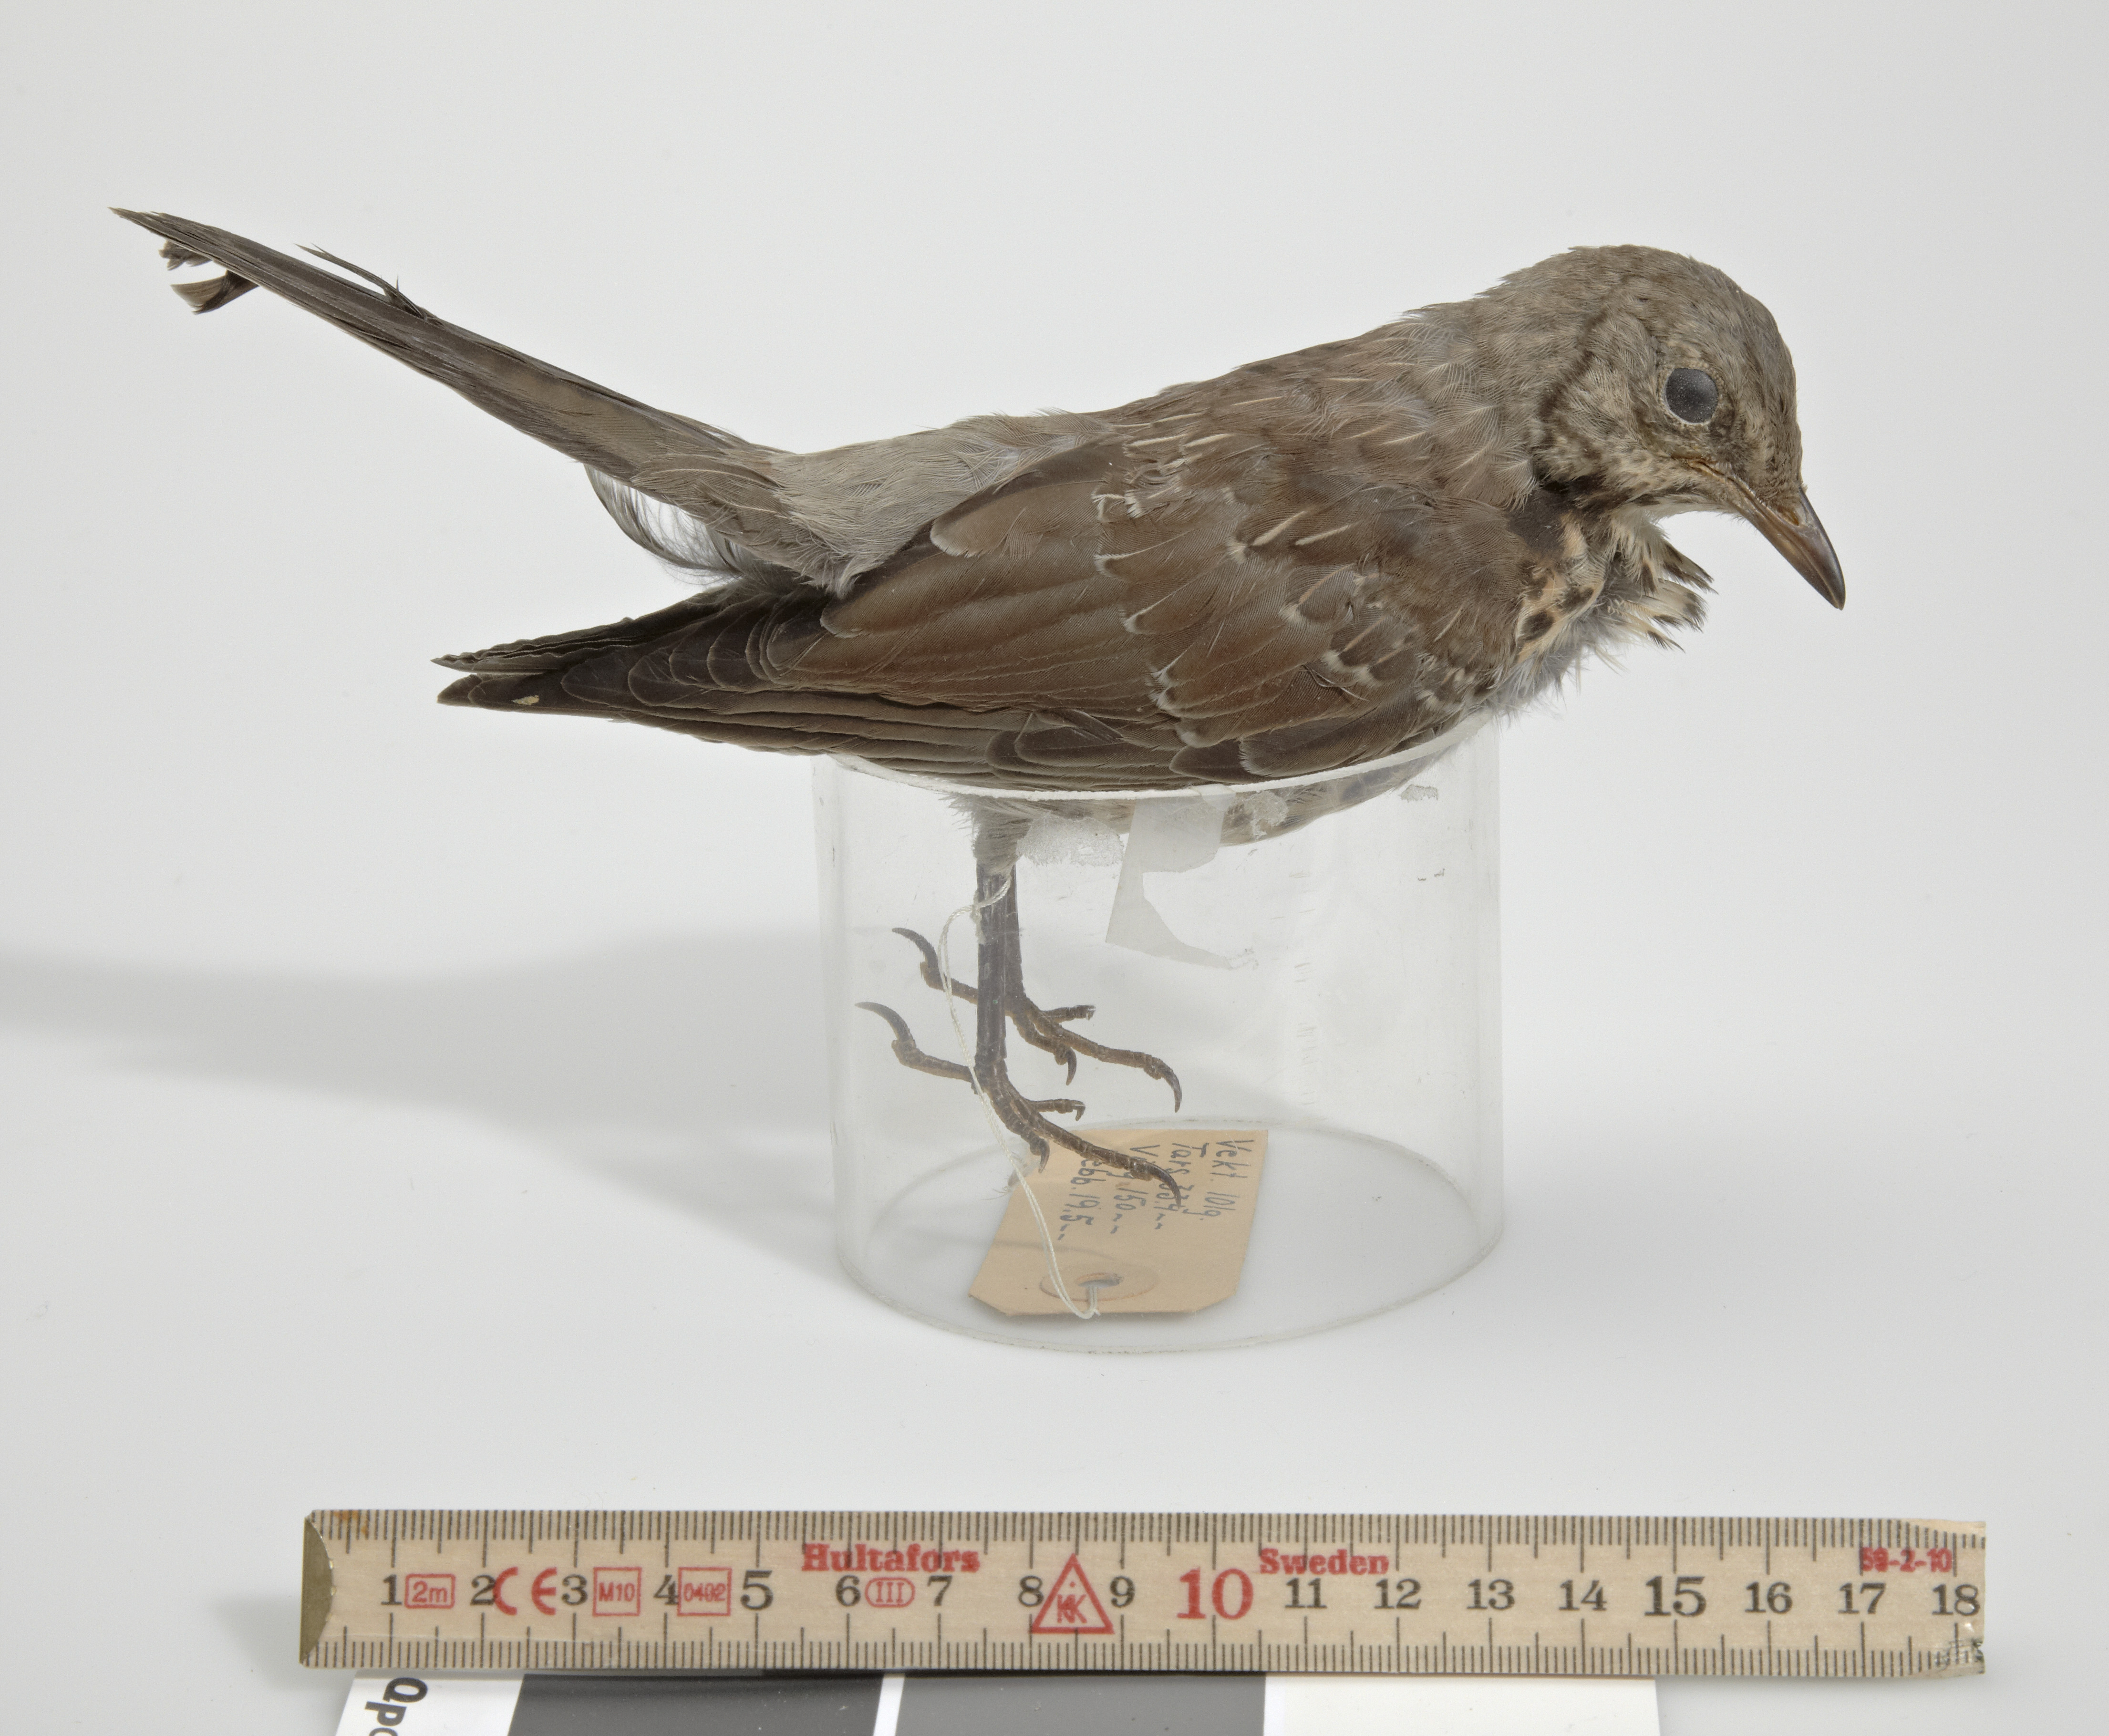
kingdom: Animalia
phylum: Chordata
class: Aves
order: Passeriformes
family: Turdidae
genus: Turdus
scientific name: Turdus pilaris
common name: Fieldfare
